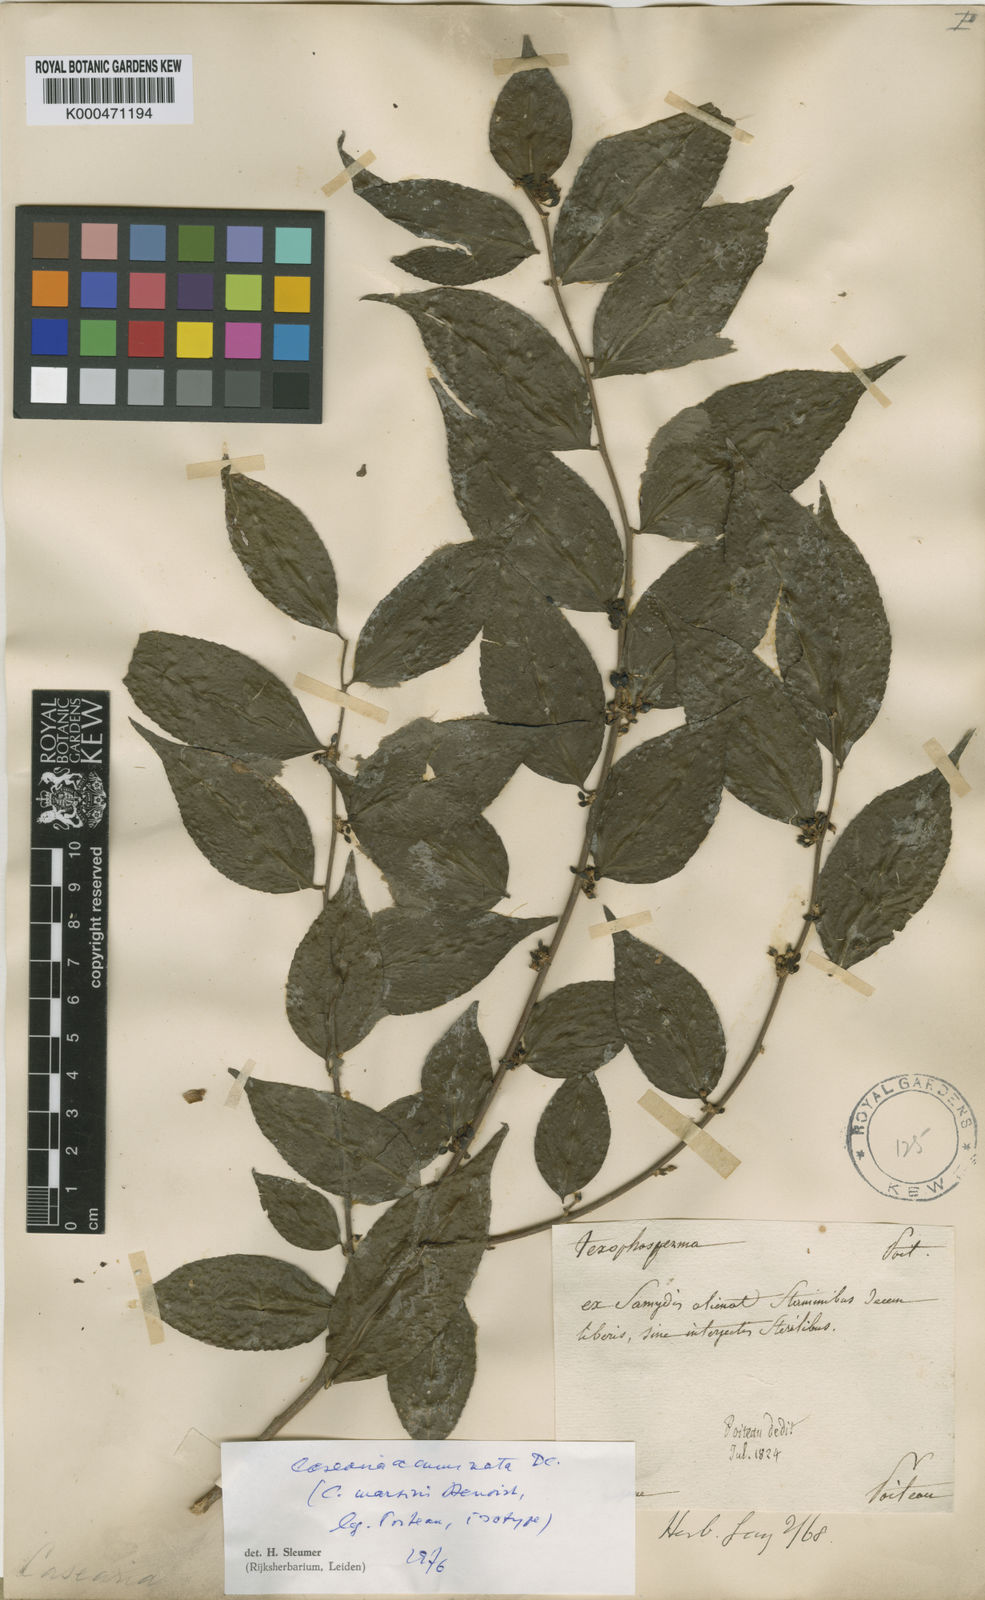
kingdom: Plantae
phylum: Tracheophyta
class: Magnoliopsida
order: Malpighiales
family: Salicaceae
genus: Casearia
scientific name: Casearia acuminata
